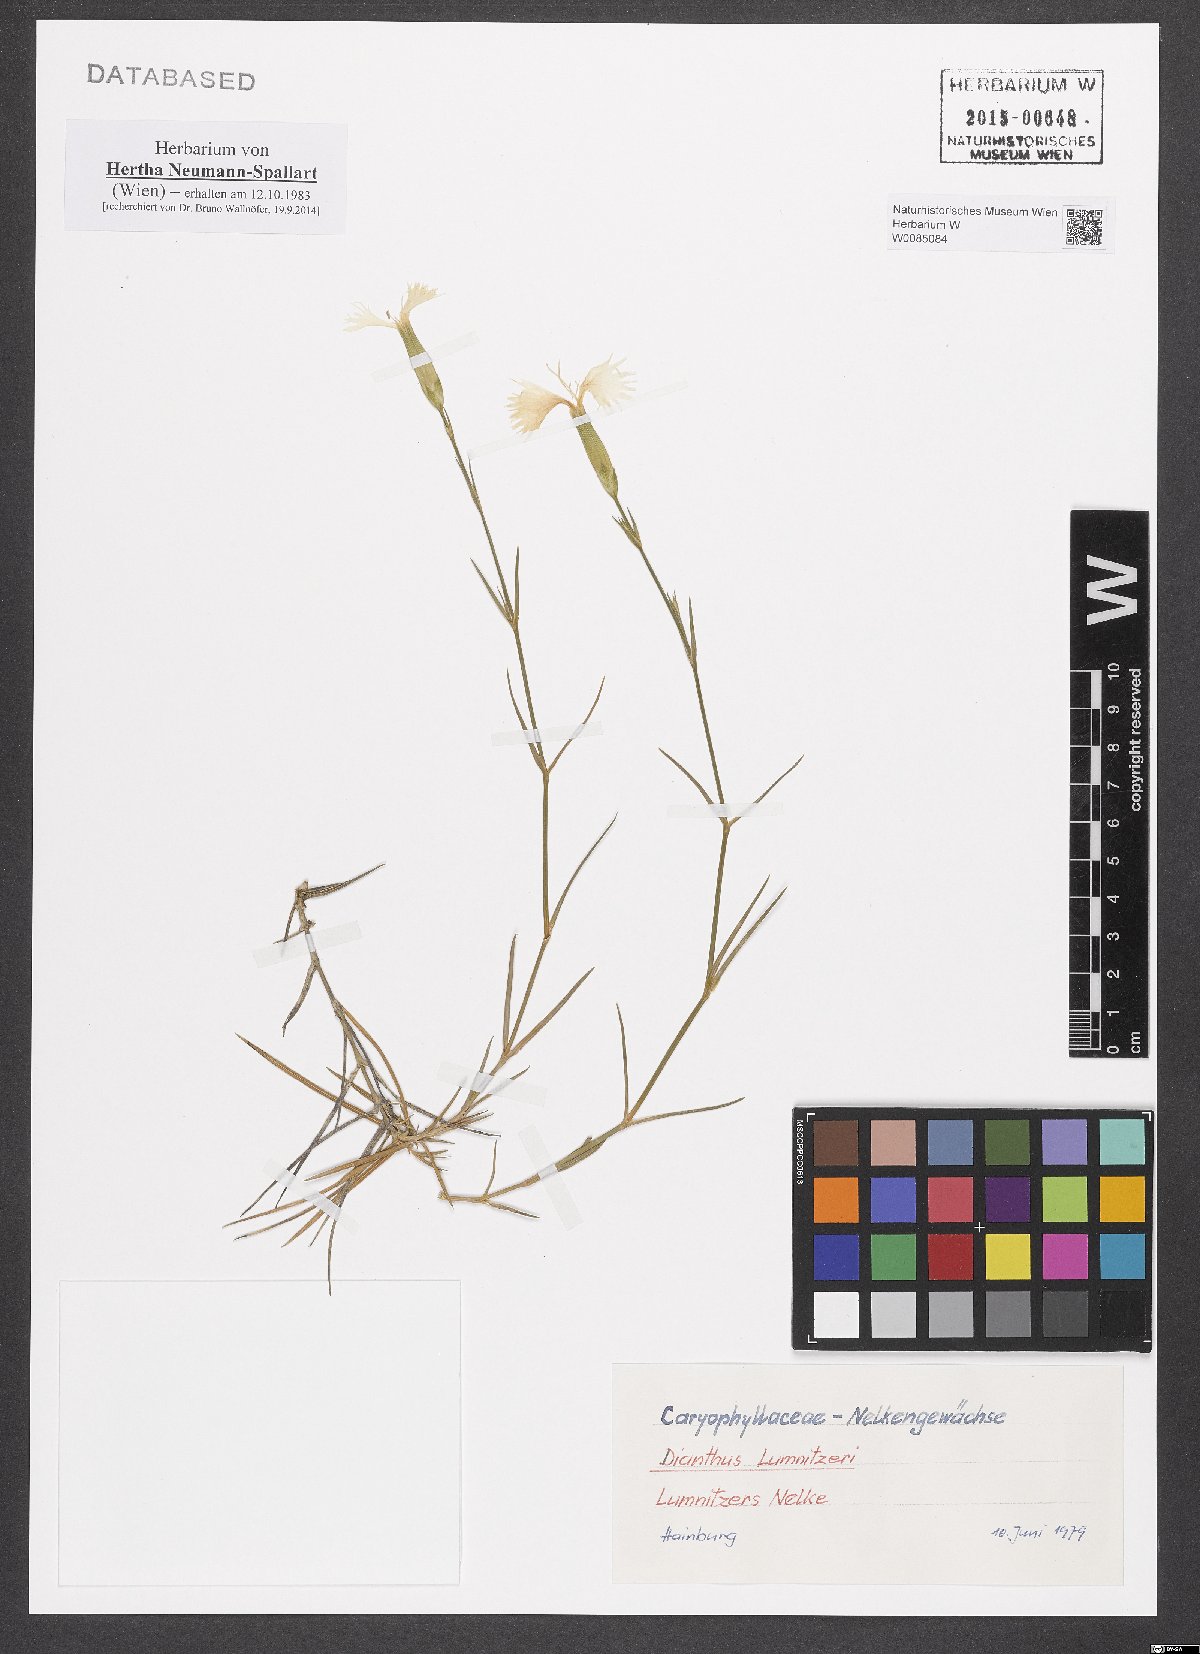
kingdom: Plantae
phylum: Tracheophyta
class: Magnoliopsida
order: Caryophyllales
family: Caryophyllaceae
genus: Dianthus
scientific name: Dianthus praecox
